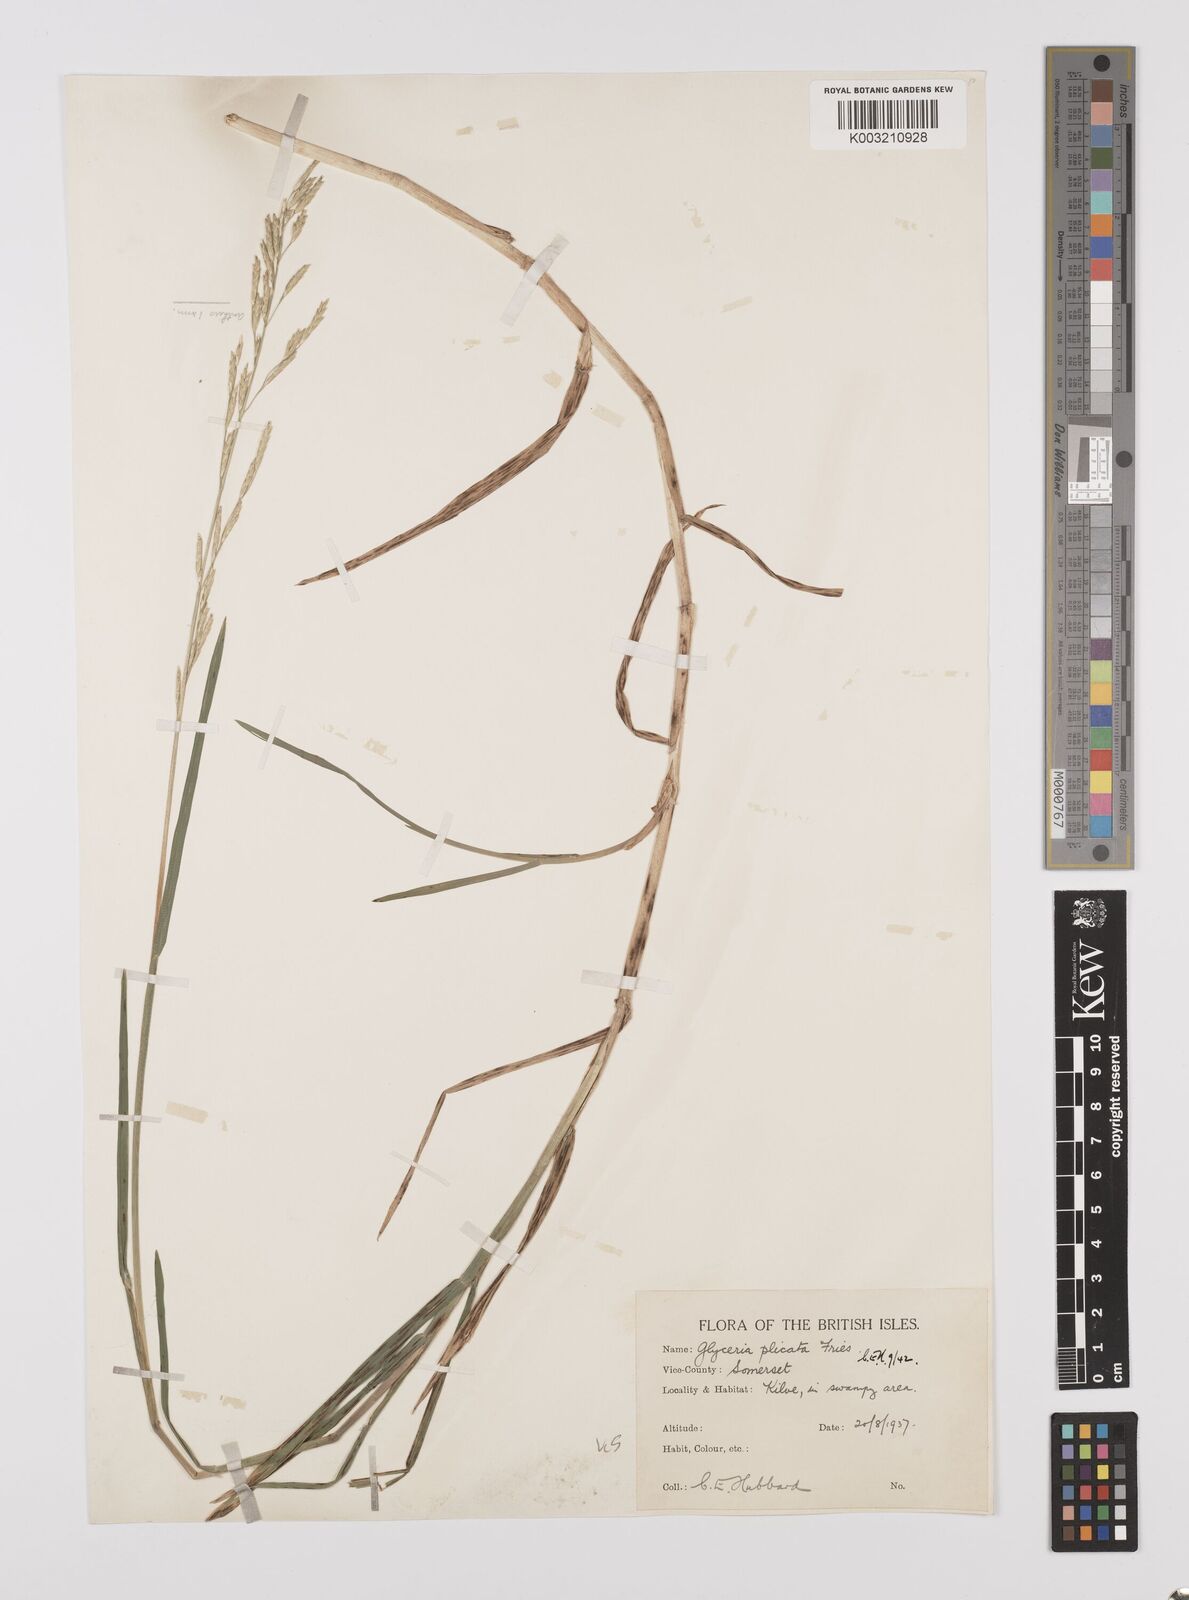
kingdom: Plantae
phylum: Tracheophyta
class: Liliopsida
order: Poales
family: Poaceae
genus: Glyceria
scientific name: Glyceria notata
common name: Plicate sweet-grass
